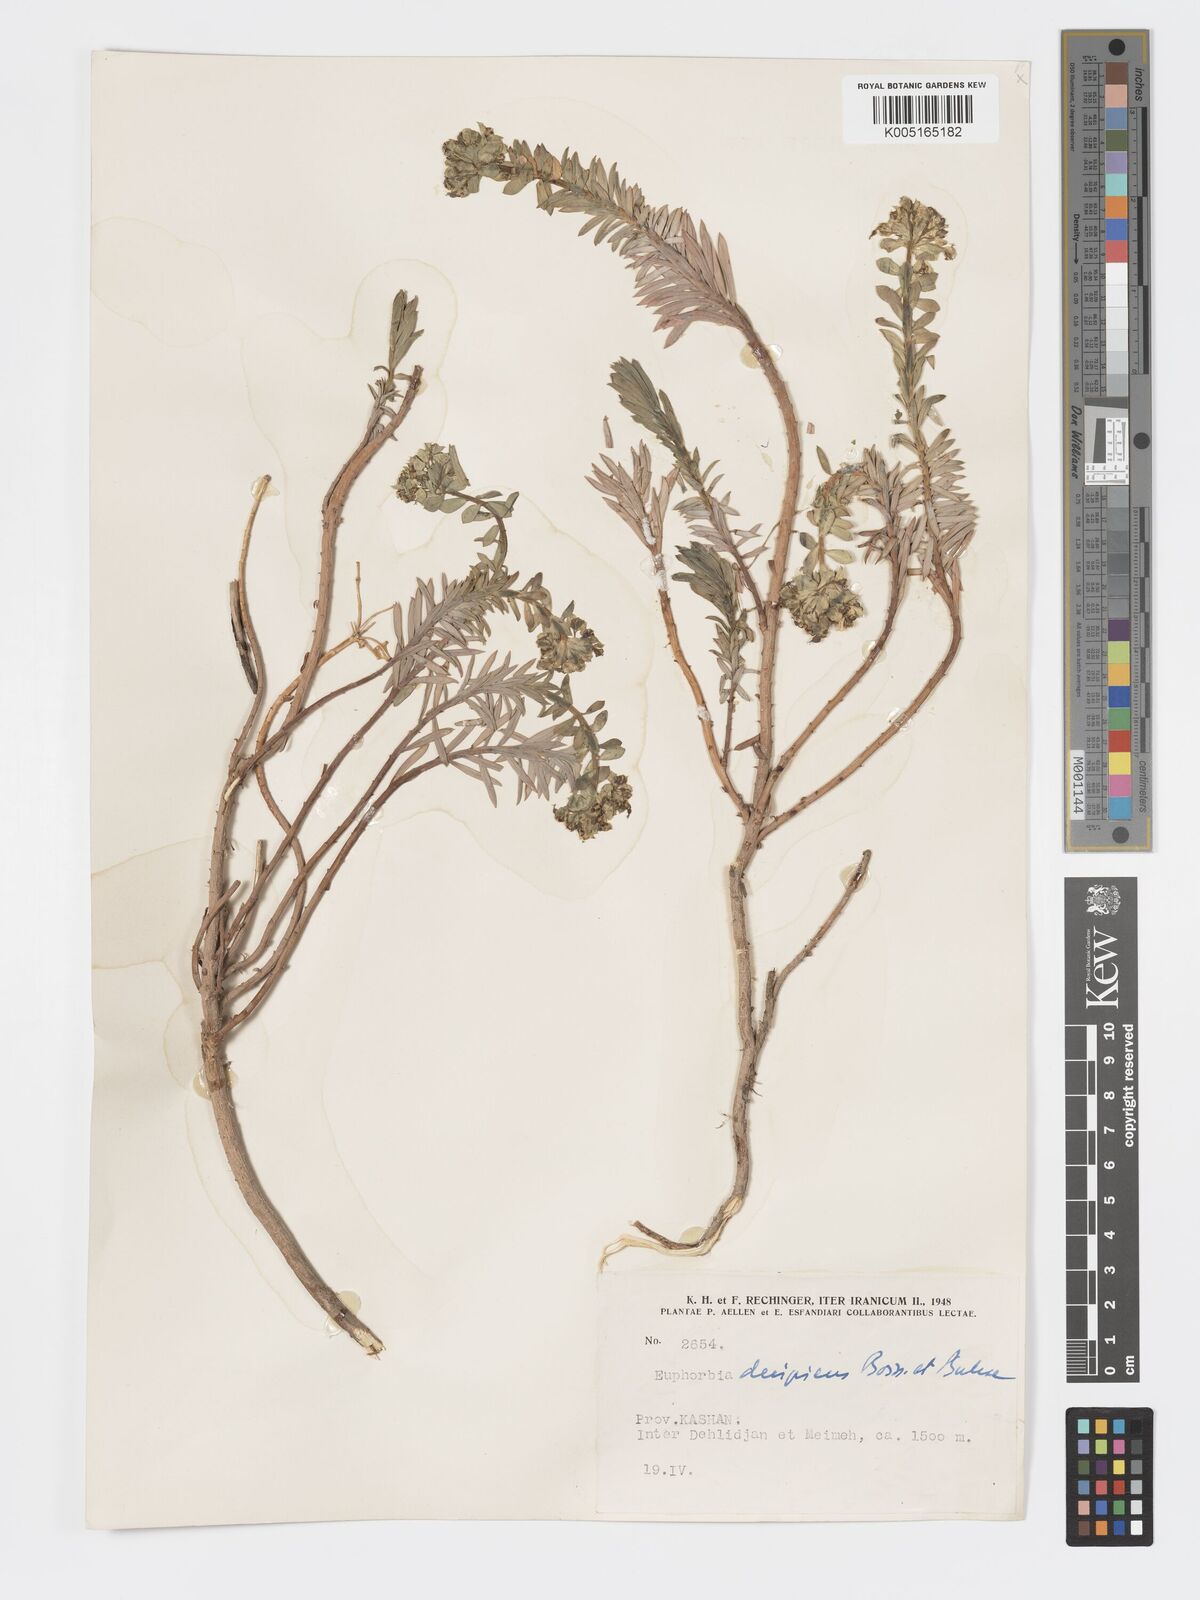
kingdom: Plantae
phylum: Tracheophyta
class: Magnoliopsida
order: Malpighiales
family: Euphorbiaceae
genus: Euphorbia
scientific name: Euphorbia polycaulis
